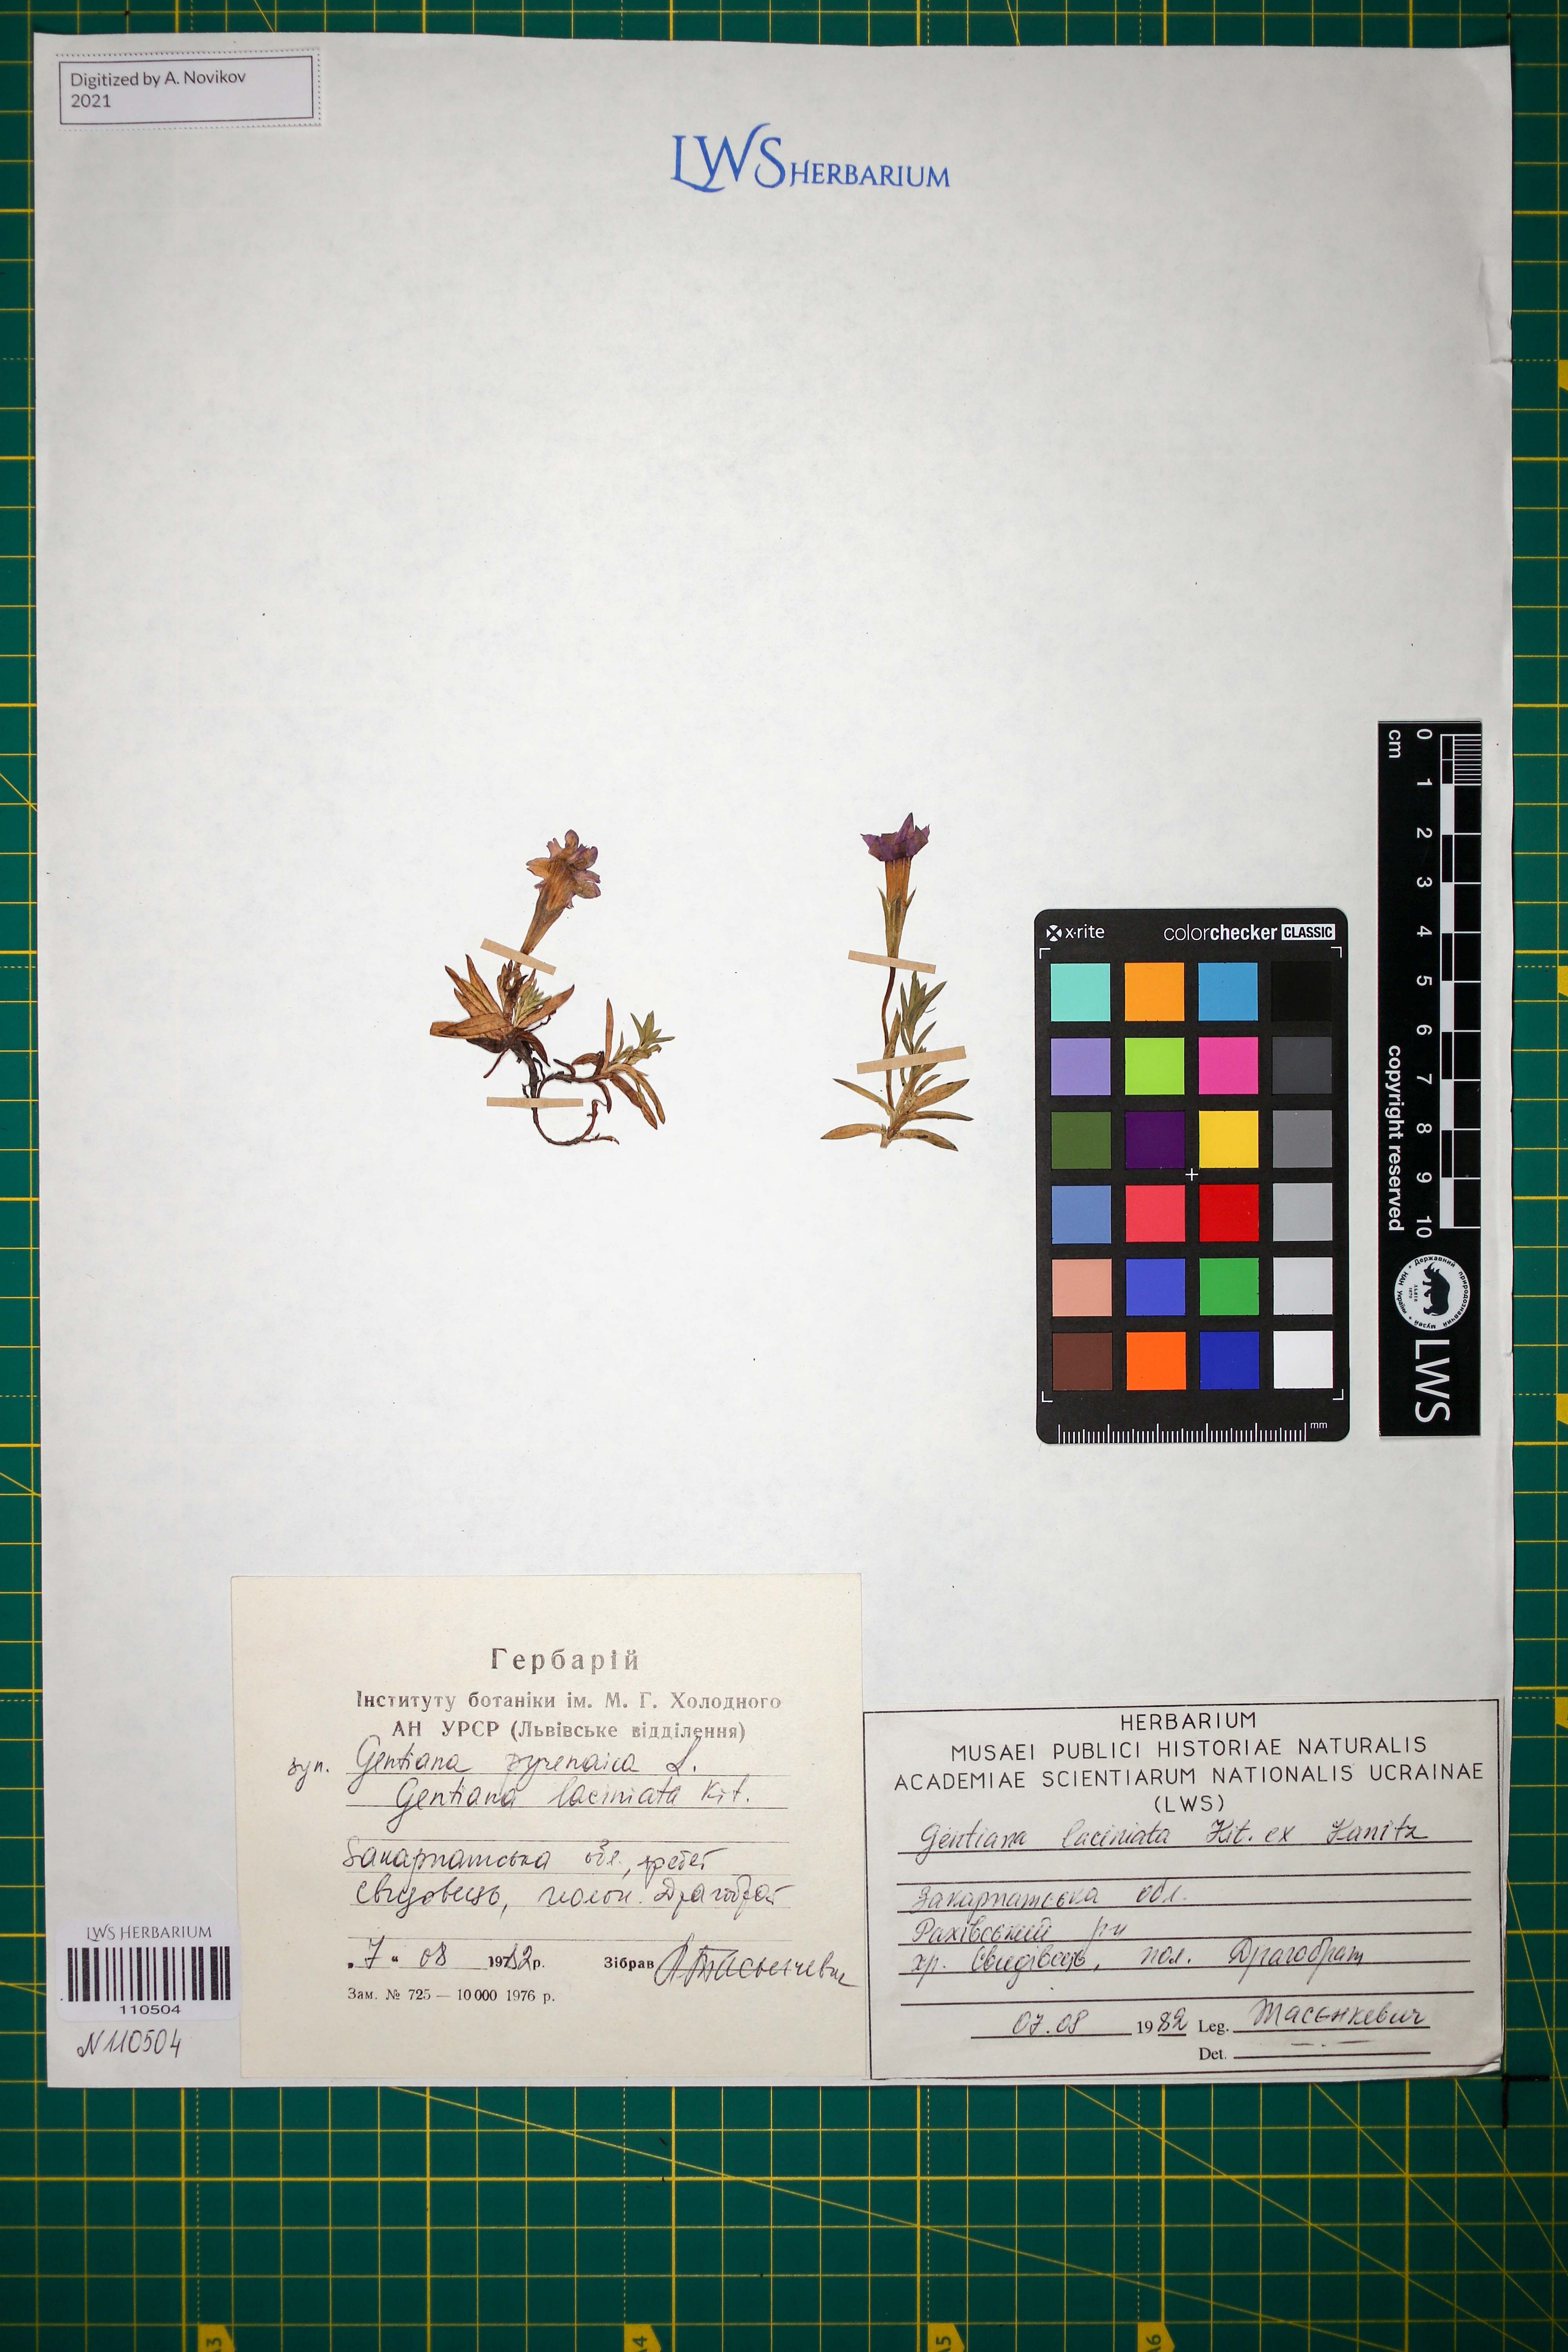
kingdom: Plantae
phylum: Tracheophyta
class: Magnoliopsida
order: Gentianales
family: Gentianaceae
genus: Gentiana
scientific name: Gentiana laciniata
